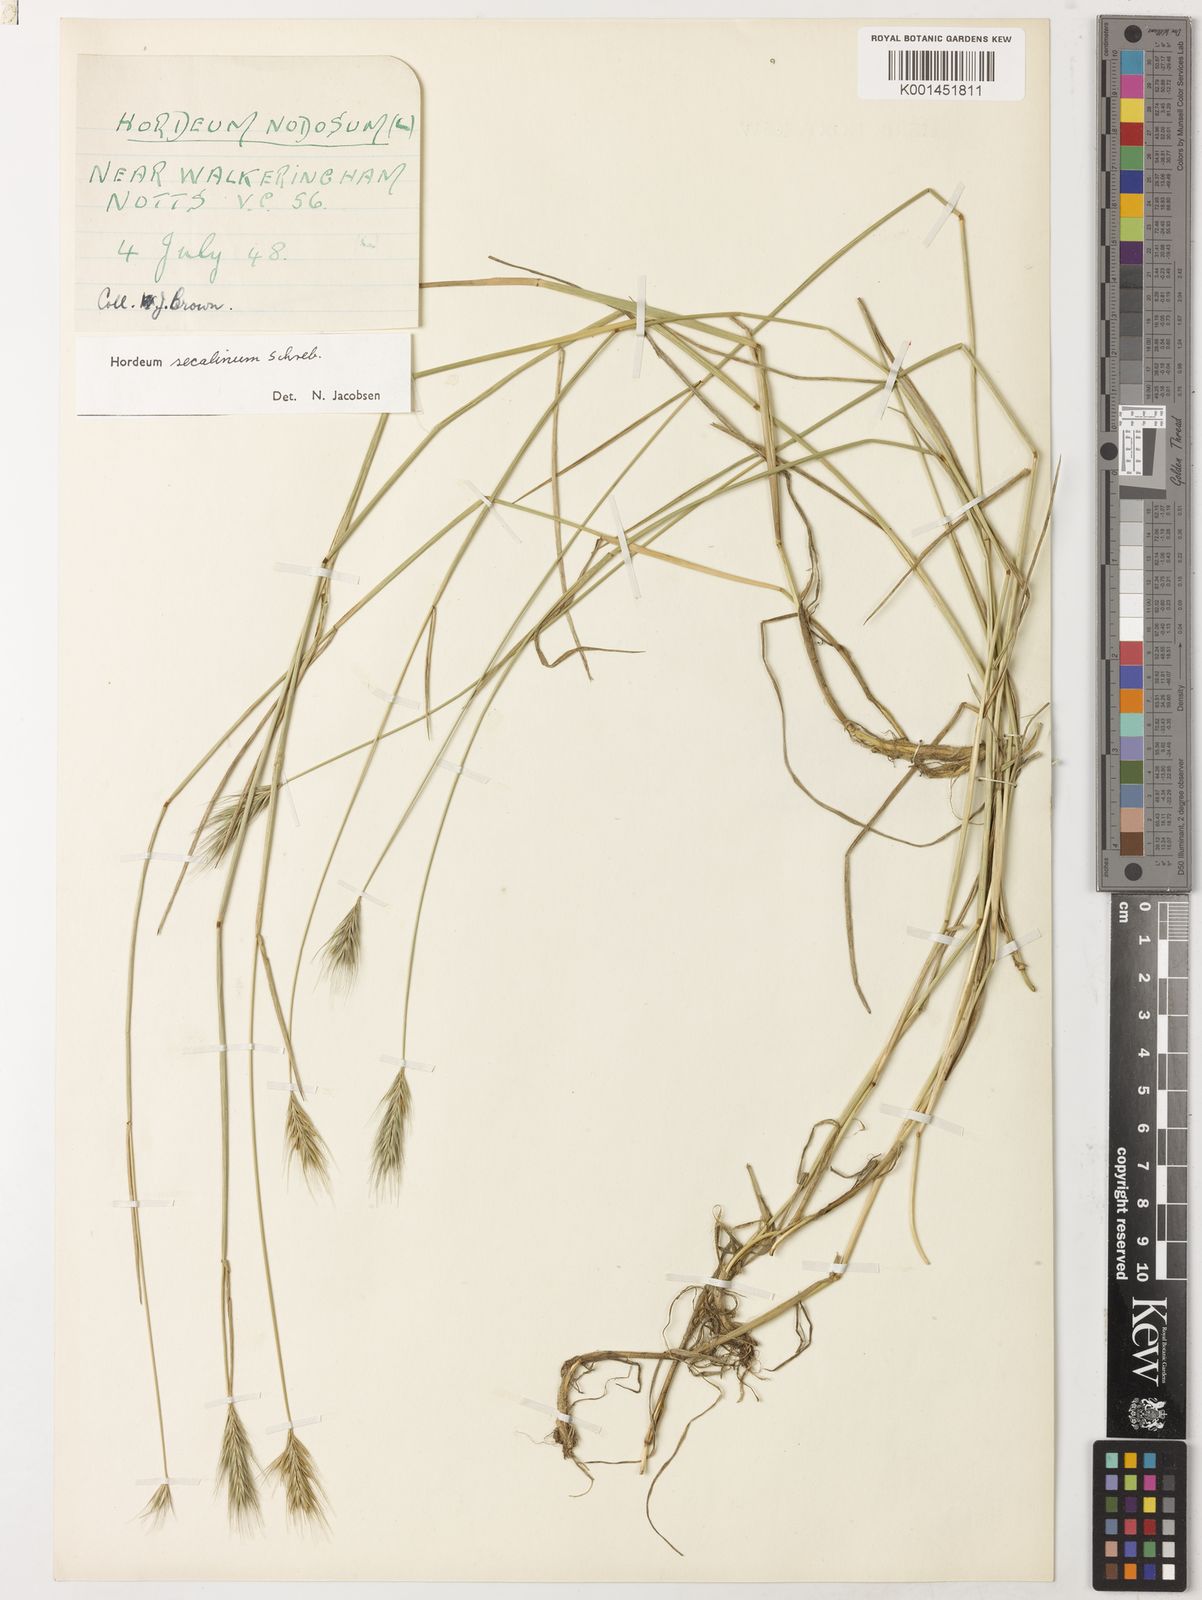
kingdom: Plantae
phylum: Tracheophyta
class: Liliopsida
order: Poales
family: Poaceae
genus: Hordeum
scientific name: Hordeum secalinum
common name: Meadow barley
